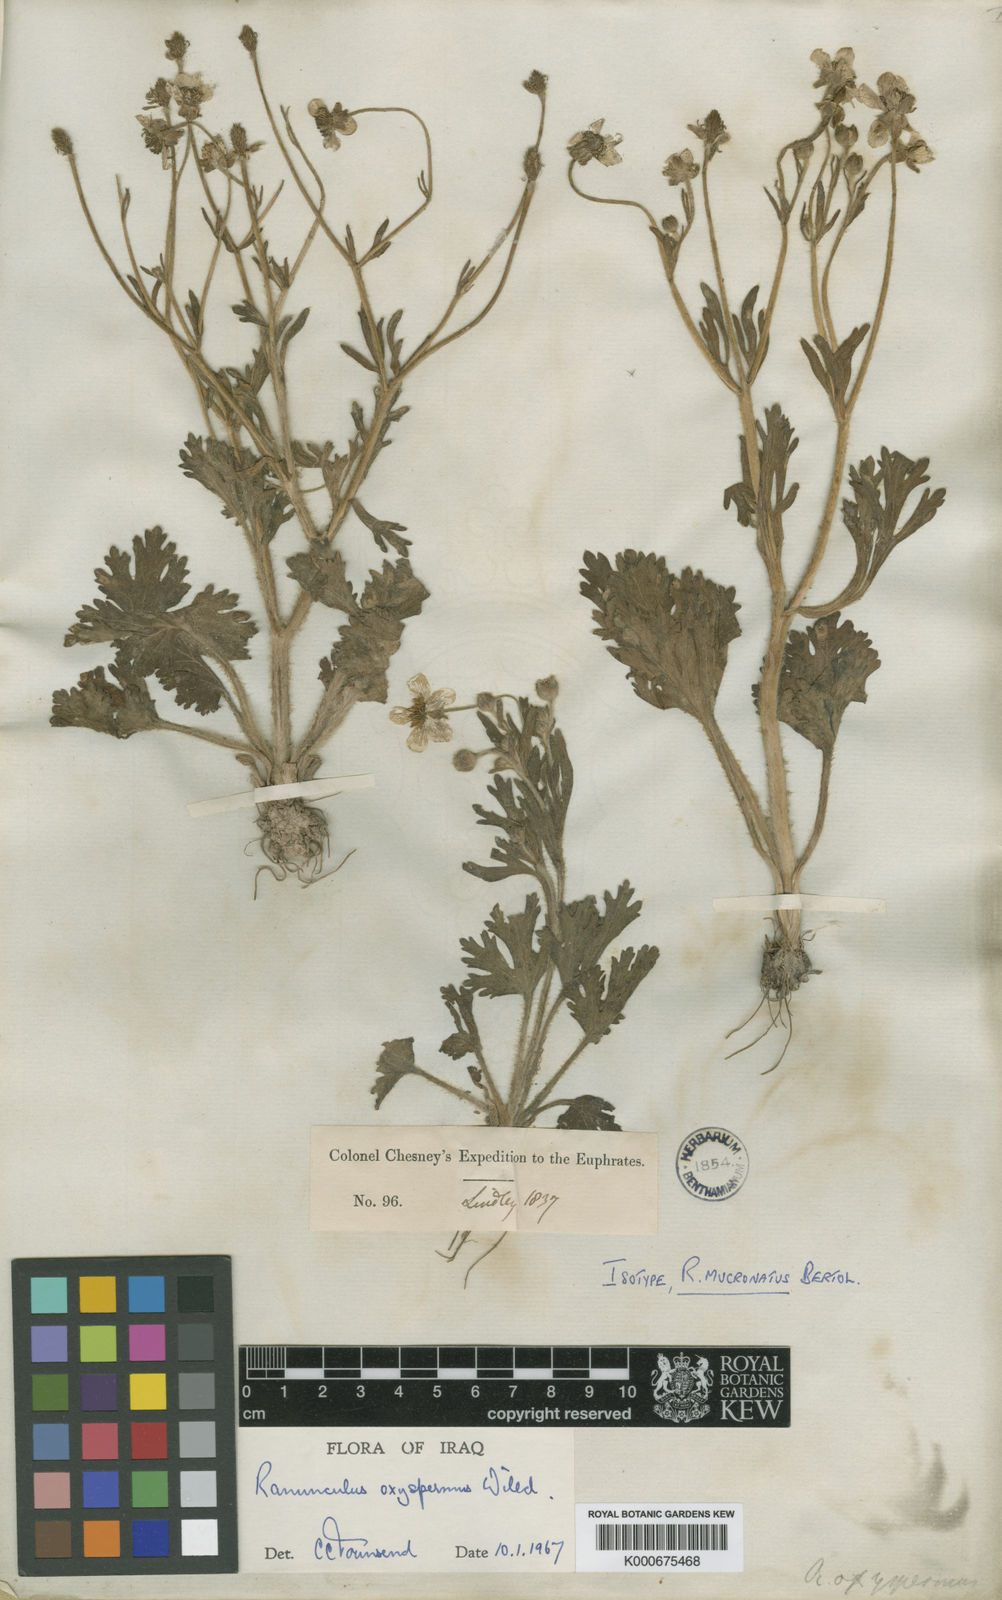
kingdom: Plantae
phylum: Tracheophyta
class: Magnoliopsida
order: Ranunculales
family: Ranunculaceae
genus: Ranunculus
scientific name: Ranunculus oxyspermus
